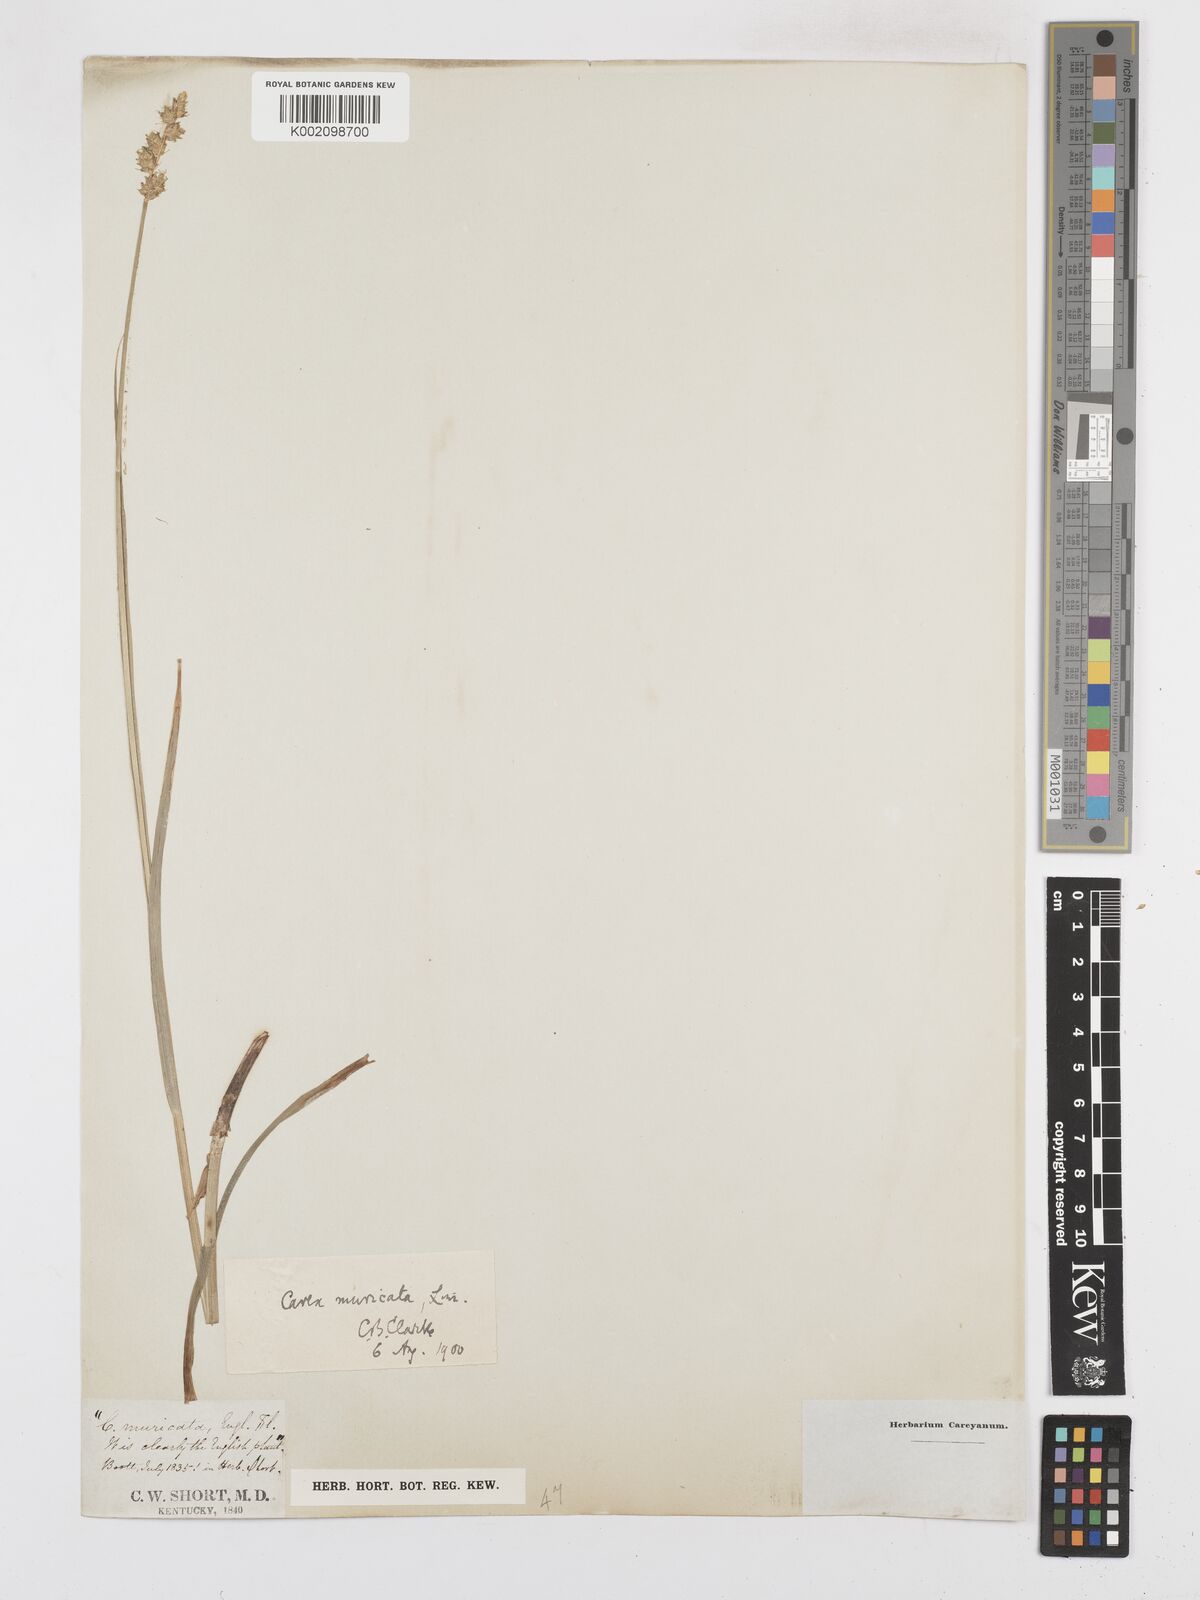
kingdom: Plantae
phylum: Tracheophyta
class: Liliopsida
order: Poales
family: Cyperaceae
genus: Carex
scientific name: Carex muricata
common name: Rough sedge
